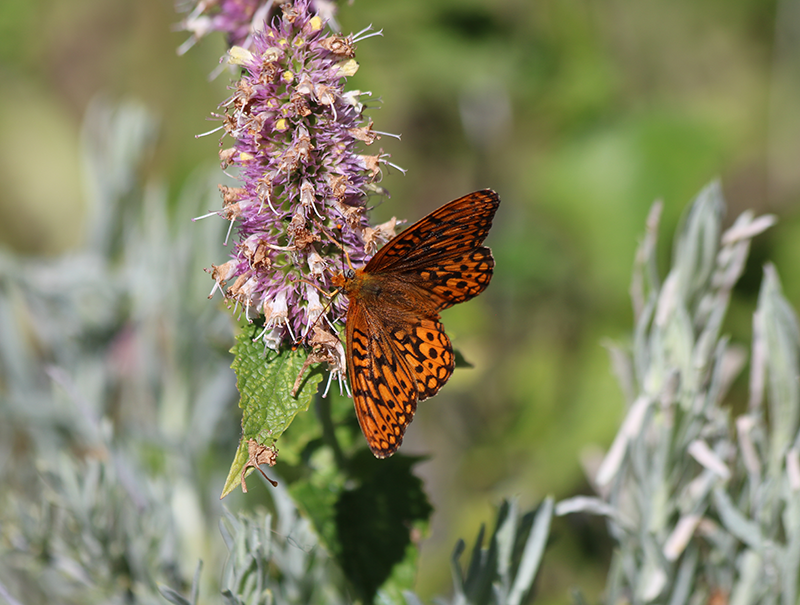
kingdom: Animalia
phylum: Arthropoda
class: Insecta
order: Lepidoptera
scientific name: Lepidoptera
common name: Butterflies
